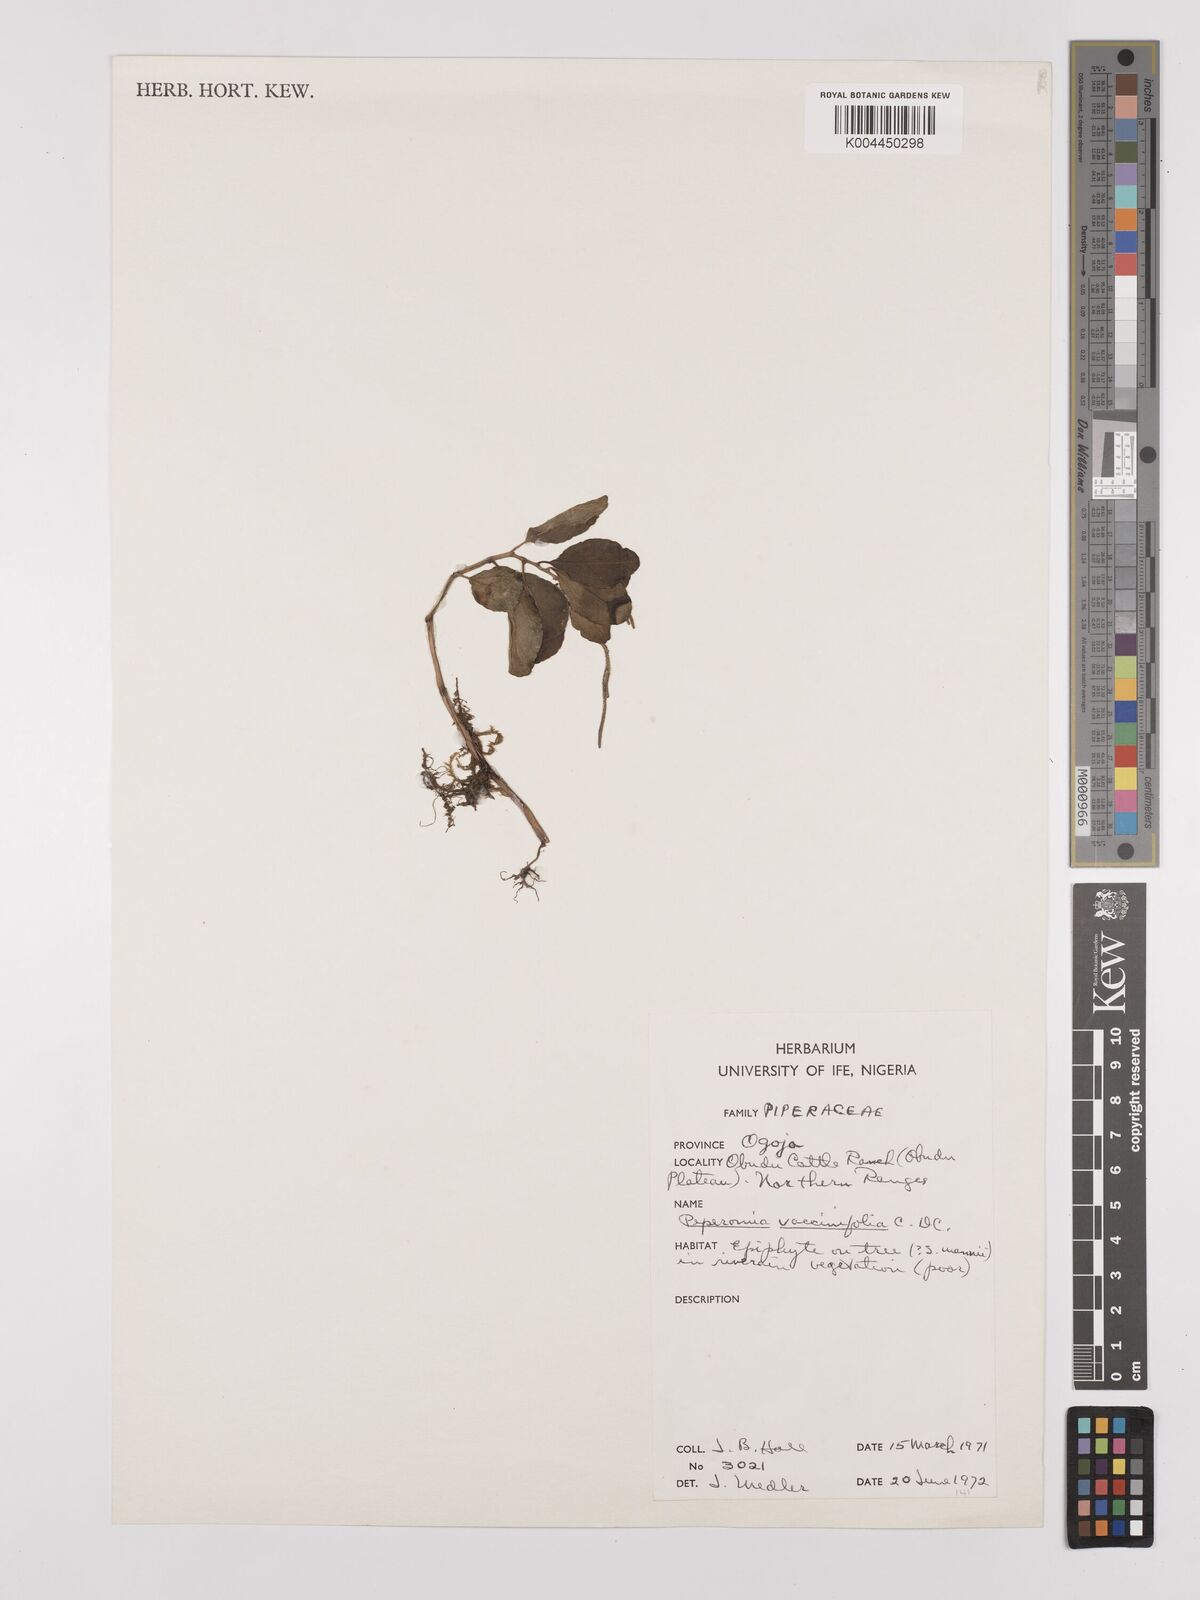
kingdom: Plantae
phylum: Tracheophyta
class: Magnoliopsida
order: Piperales
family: Piperaceae
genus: Peperomia
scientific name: Peperomia thomeana
